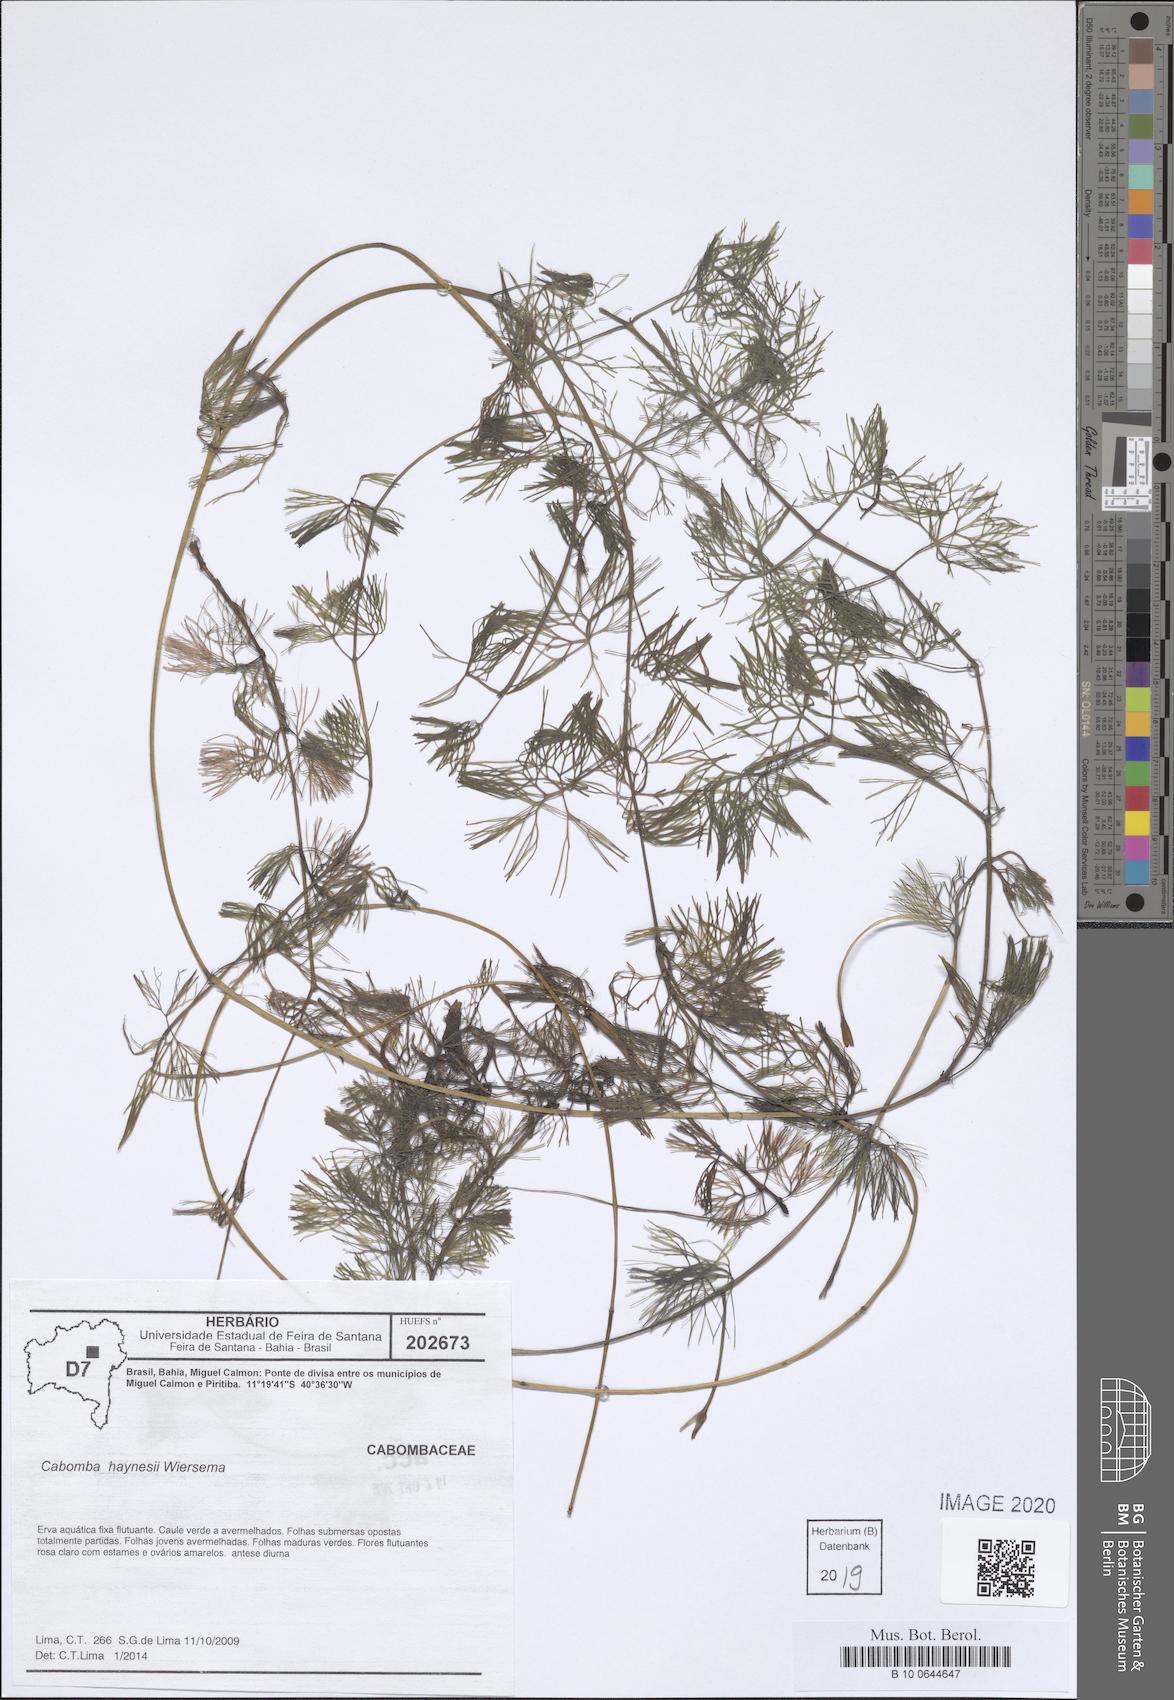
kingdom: Plantae
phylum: Tracheophyta
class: Magnoliopsida
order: Nymphaeales
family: Cabombaceae
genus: Cabomba
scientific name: Cabomba haynesii
